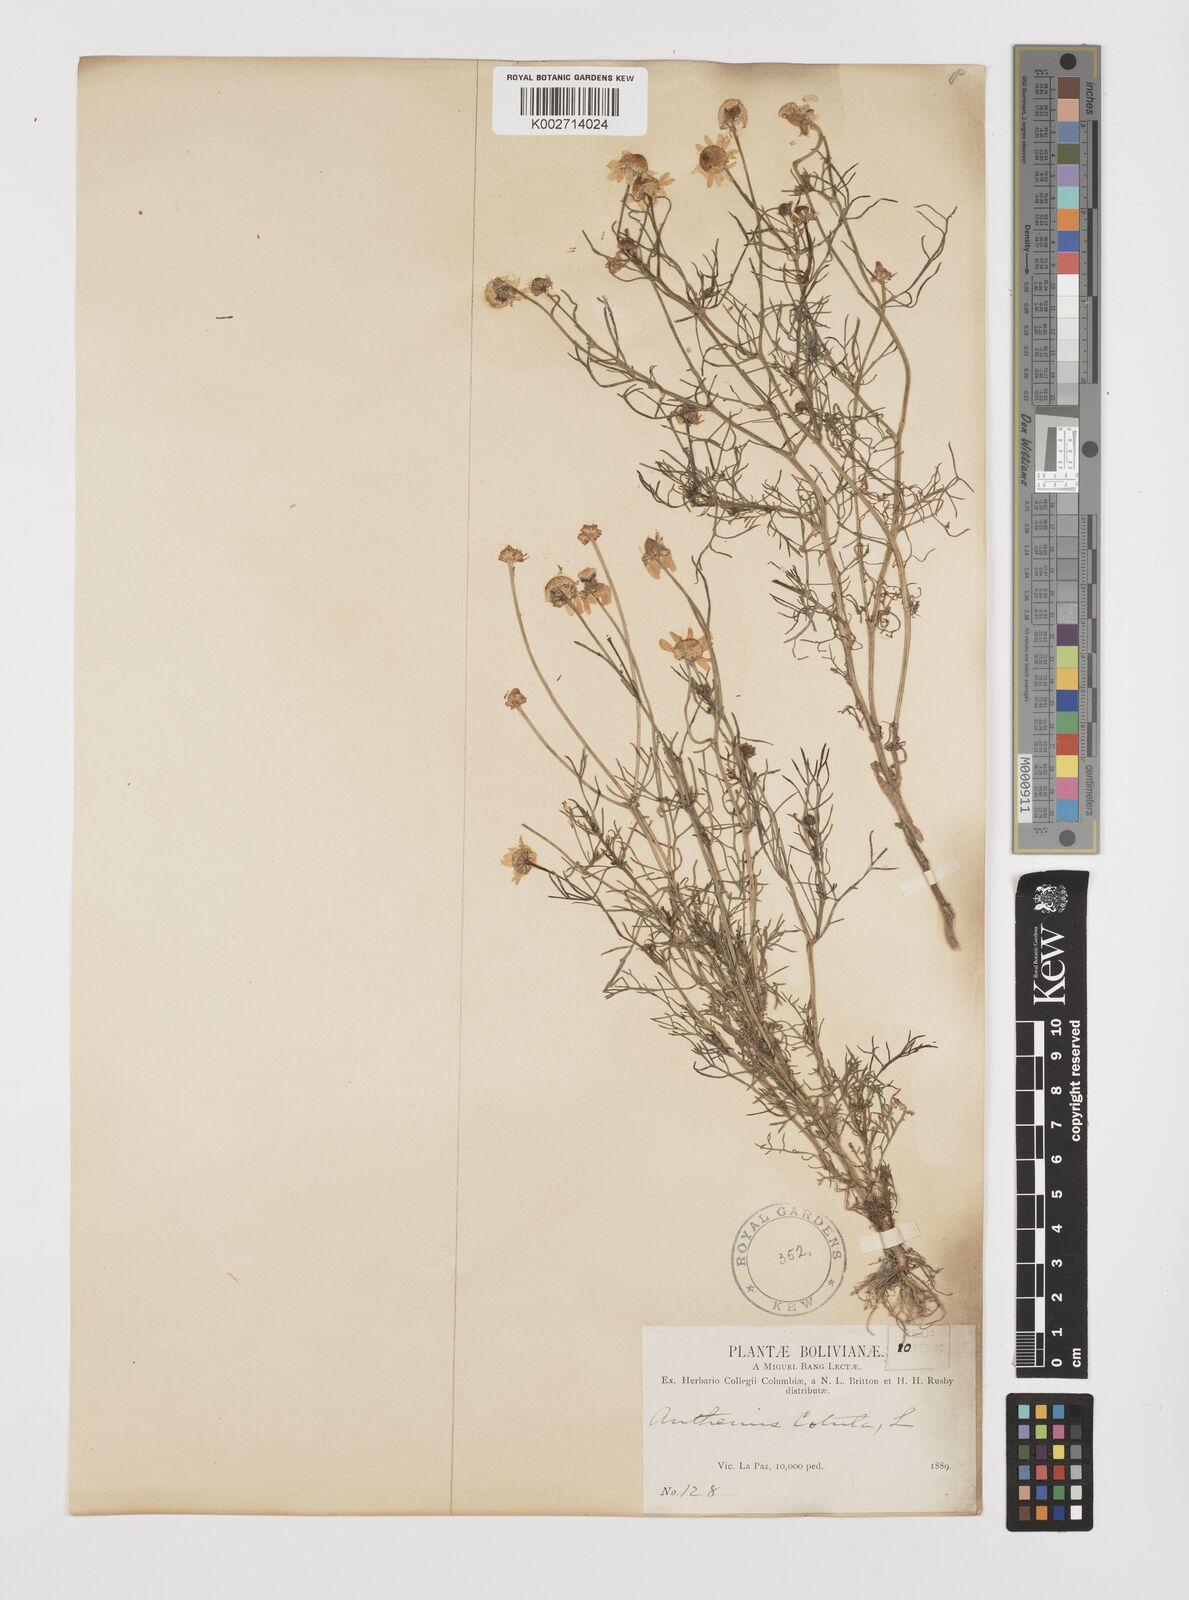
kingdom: Plantae
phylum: Tracheophyta
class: Magnoliopsida
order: Asterales
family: Asteraceae
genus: Anthemis
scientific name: Anthemis cotula
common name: Stinking chamomile
